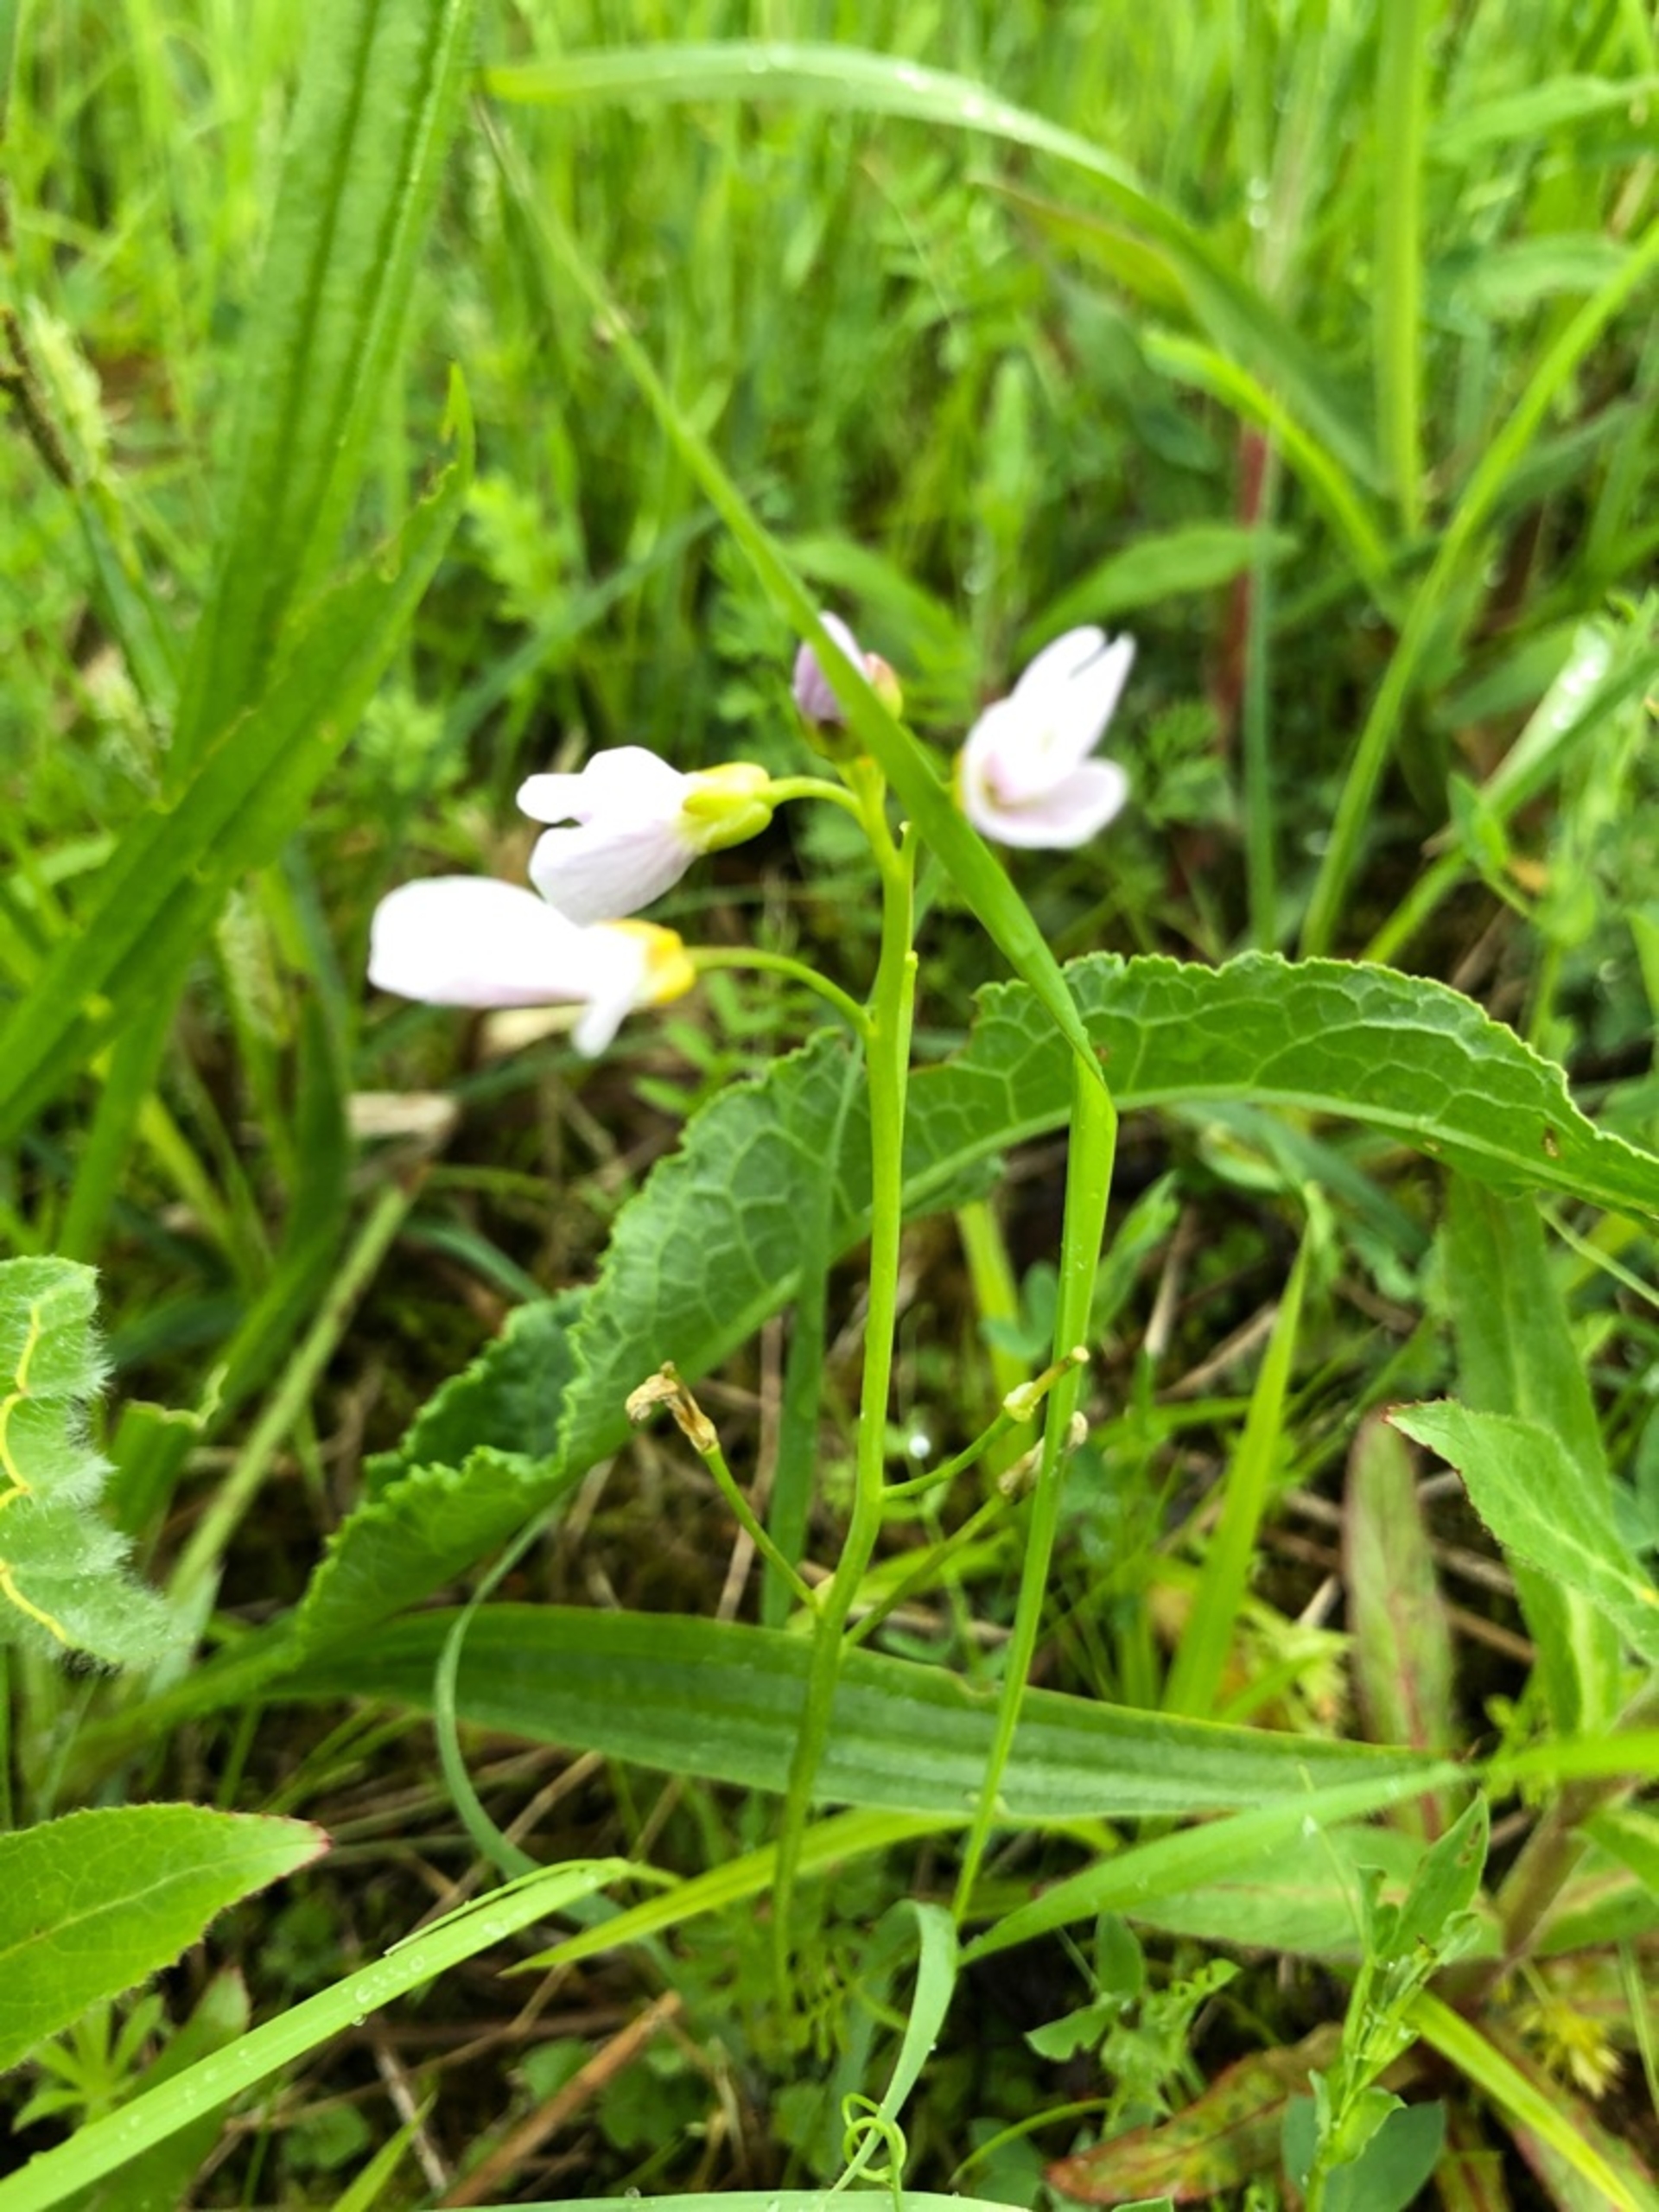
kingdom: Plantae
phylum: Tracheophyta
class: Magnoliopsida
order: Brassicales
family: Brassicaceae
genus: Cardamine
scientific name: Cardamine pratensis
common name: Engkarse
